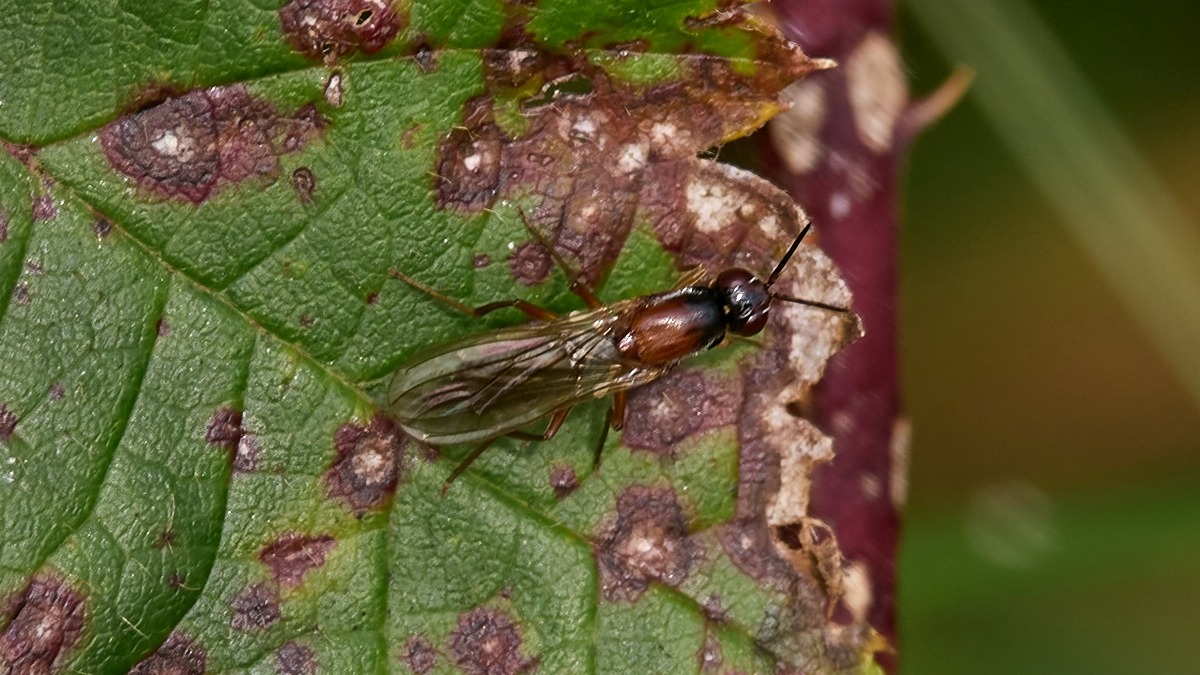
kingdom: Animalia
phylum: Arthropoda
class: Insecta
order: Diptera
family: Psilidae
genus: Loxocera
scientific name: Loxocera
